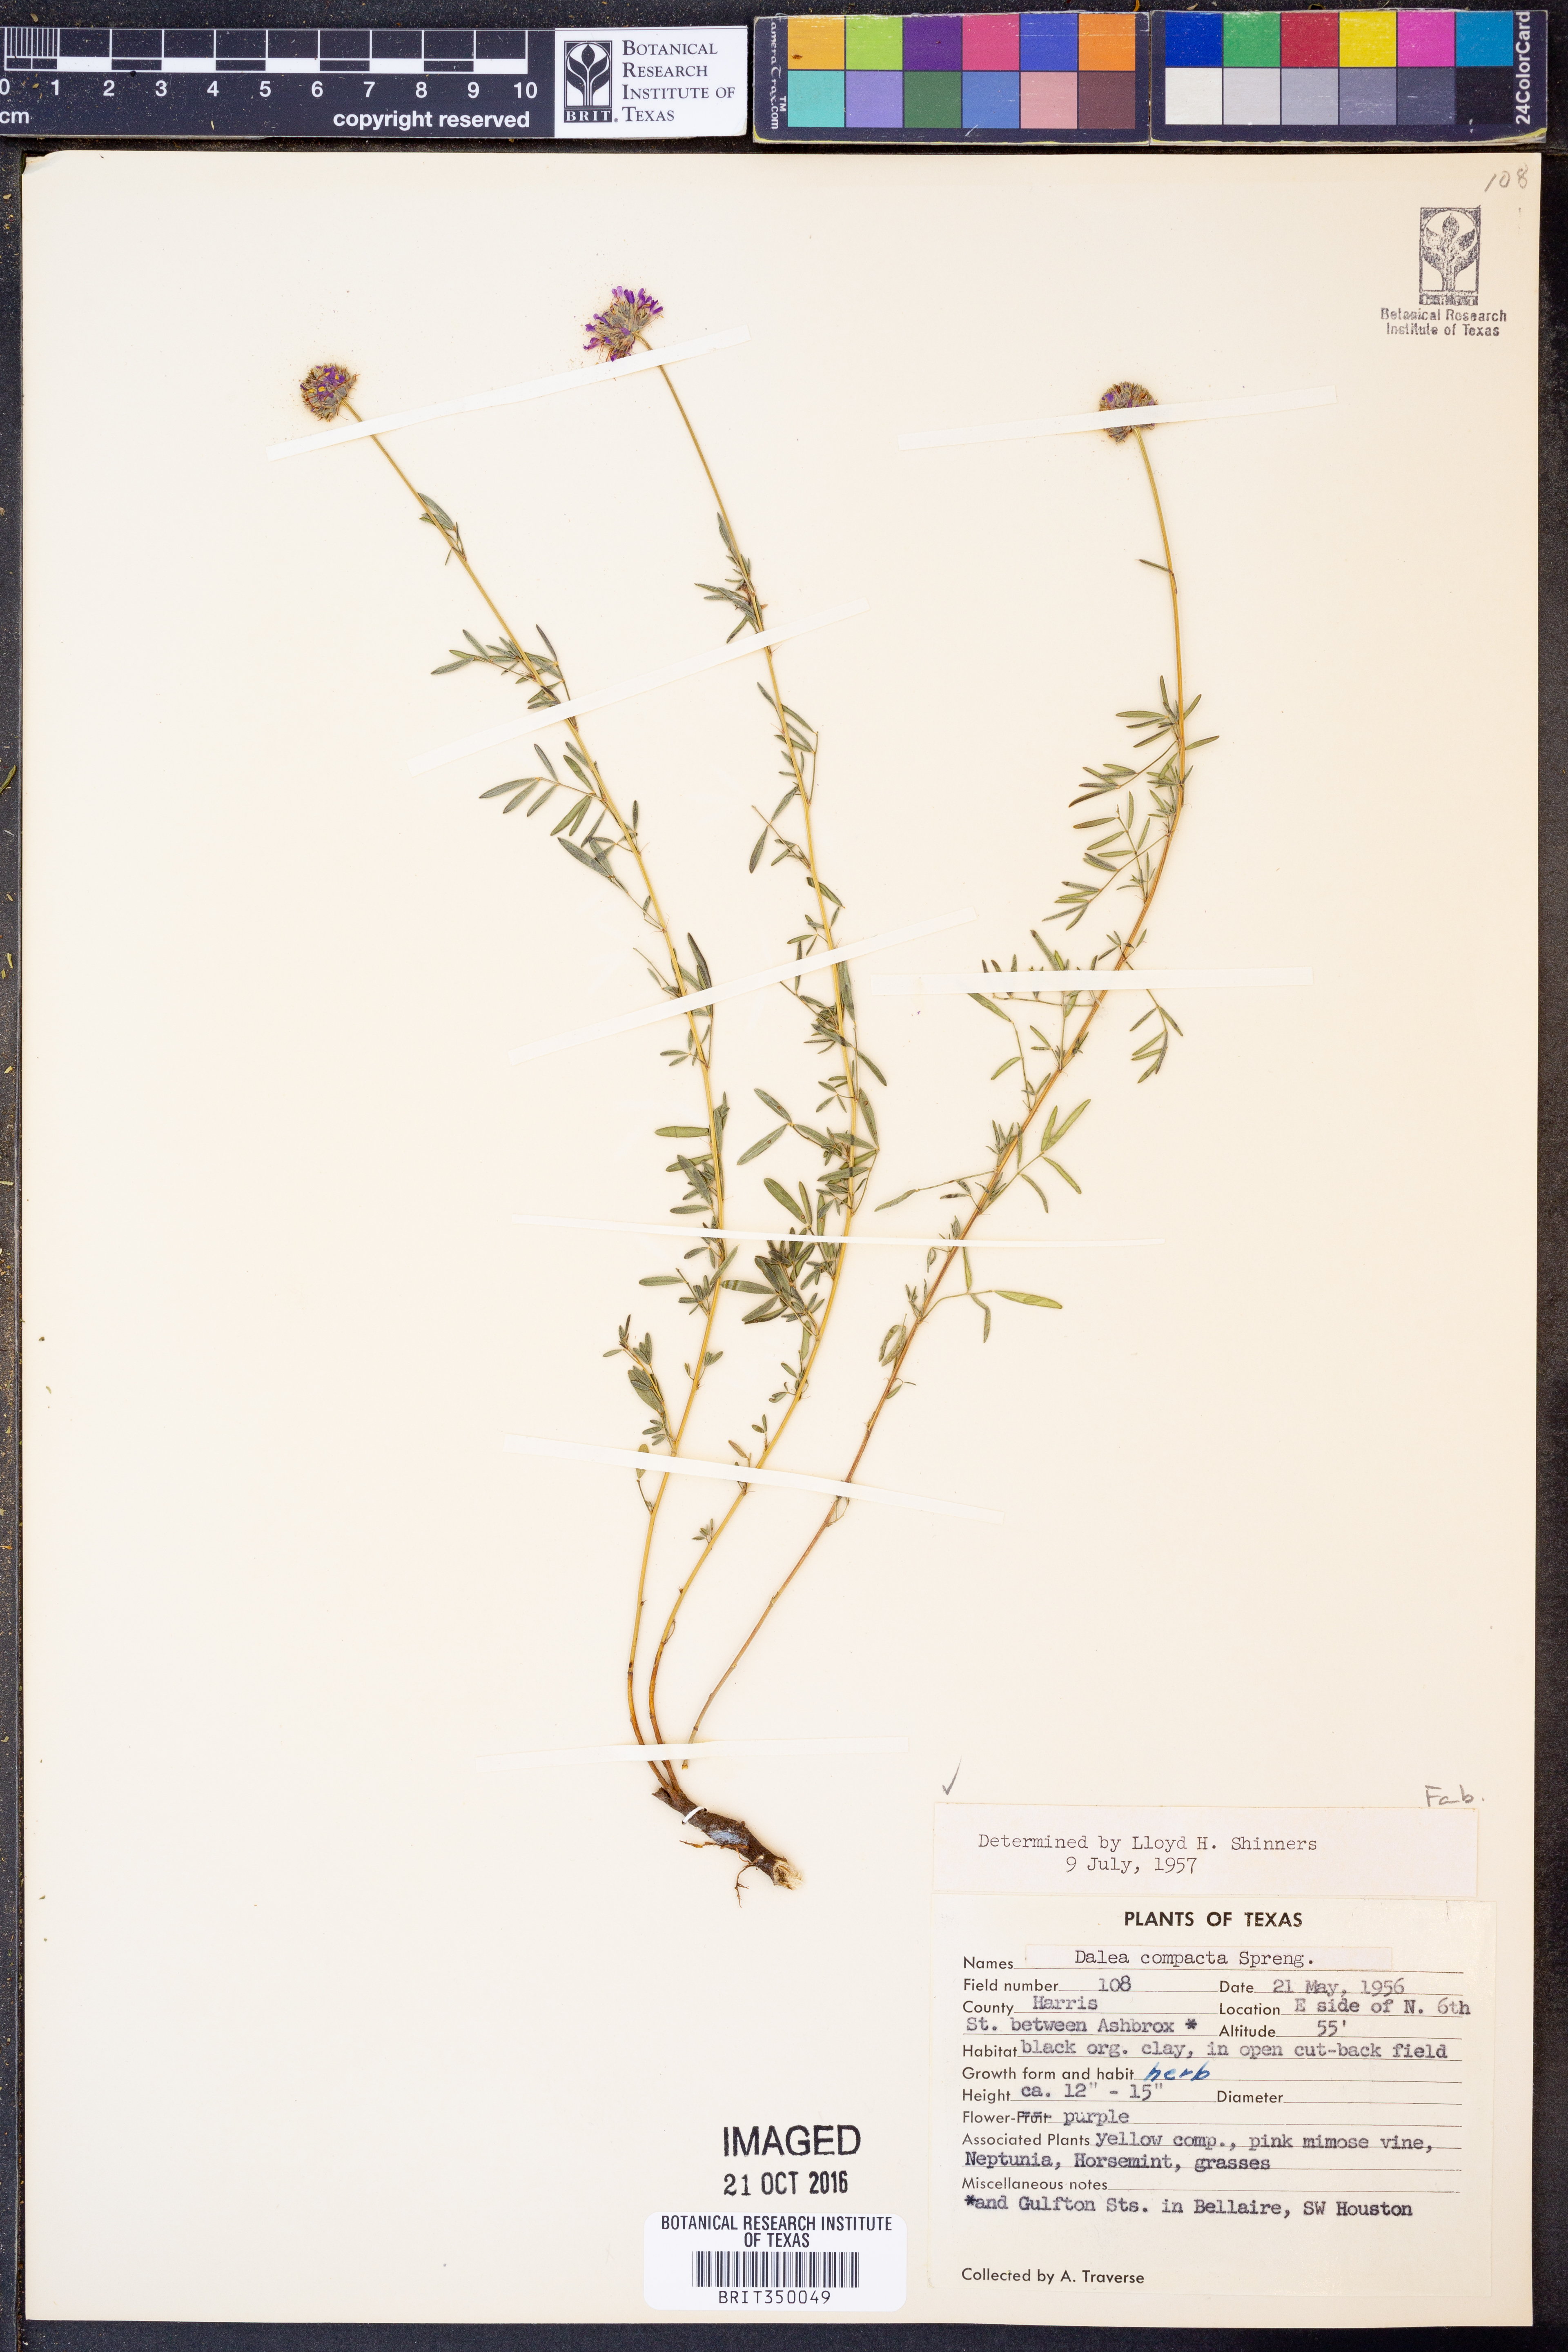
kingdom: Plantae
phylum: Tracheophyta
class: Magnoliopsida
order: Fabales
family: Fabaceae
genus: Dalea
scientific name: Dalea compacta
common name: Compact prairie-clover
